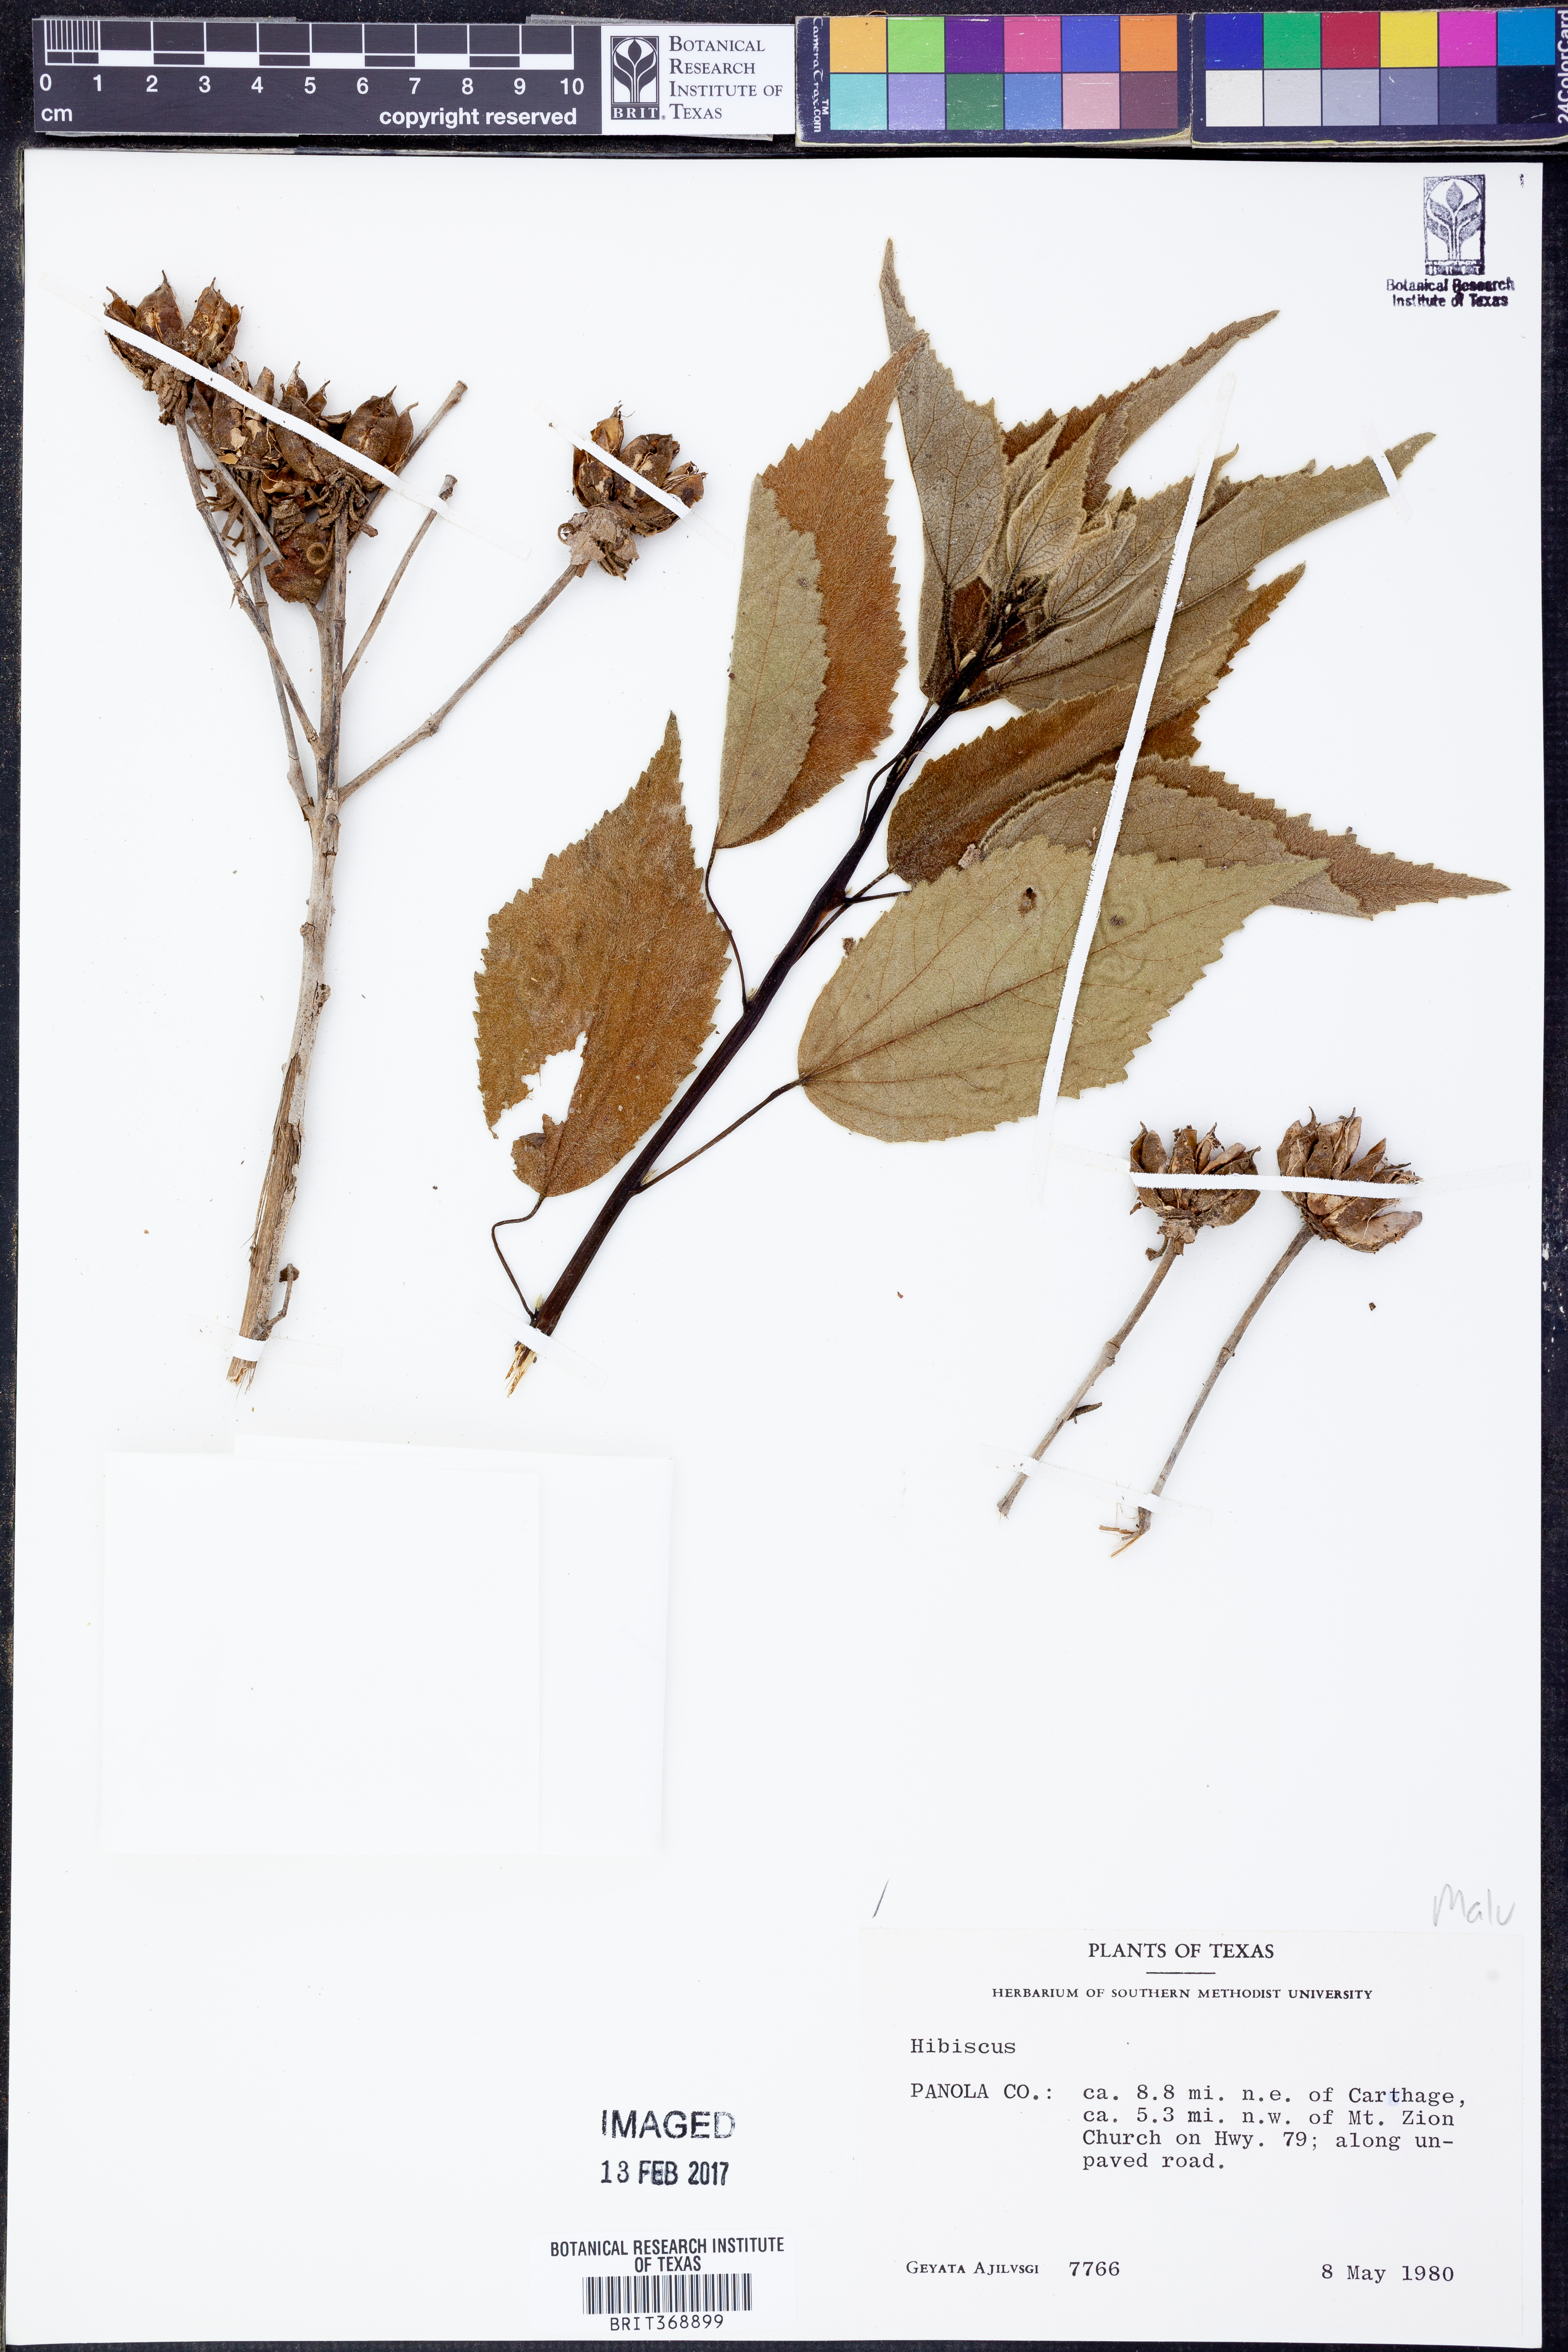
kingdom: Plantae
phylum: Tracheophyta
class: Magnoliopsida
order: Malvales
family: Malvaceae
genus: Hibiscus
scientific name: Hibiscus
